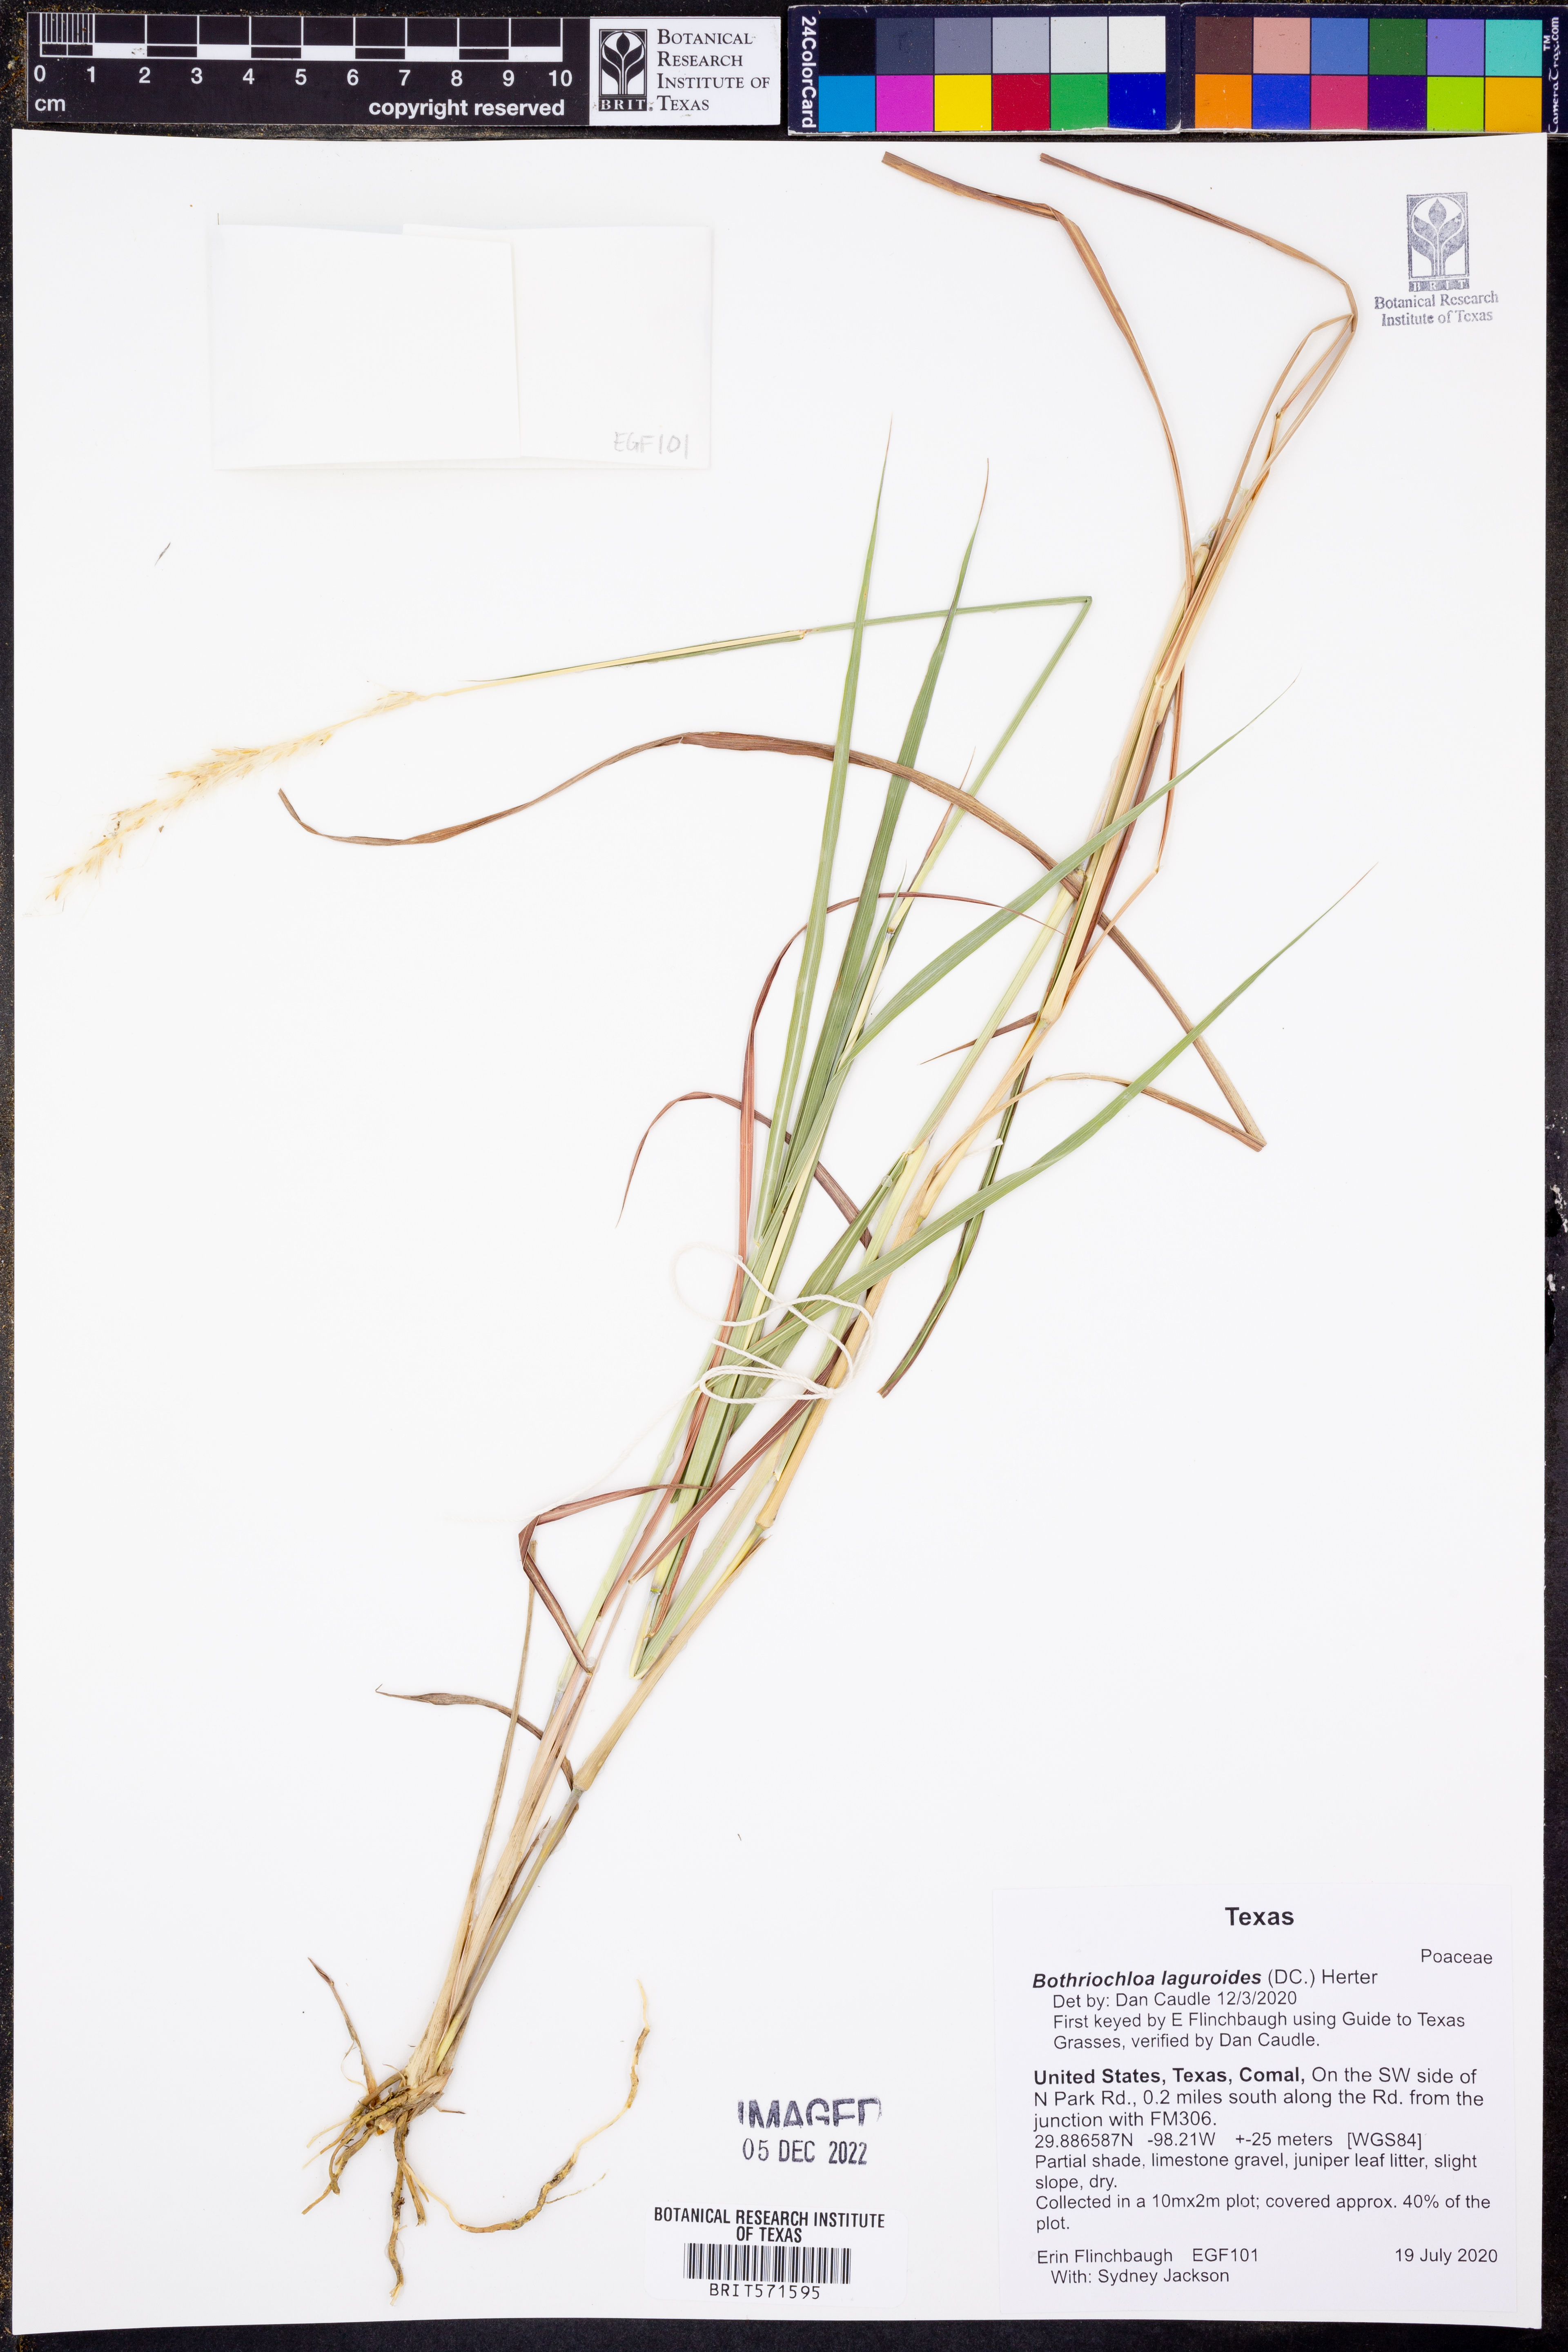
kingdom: Plantae
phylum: Tracheophyta
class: Liliopsida
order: Poales
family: Poaceae
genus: Bothriochloa
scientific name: Bothriochloa laguroides
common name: Silver bluestem
